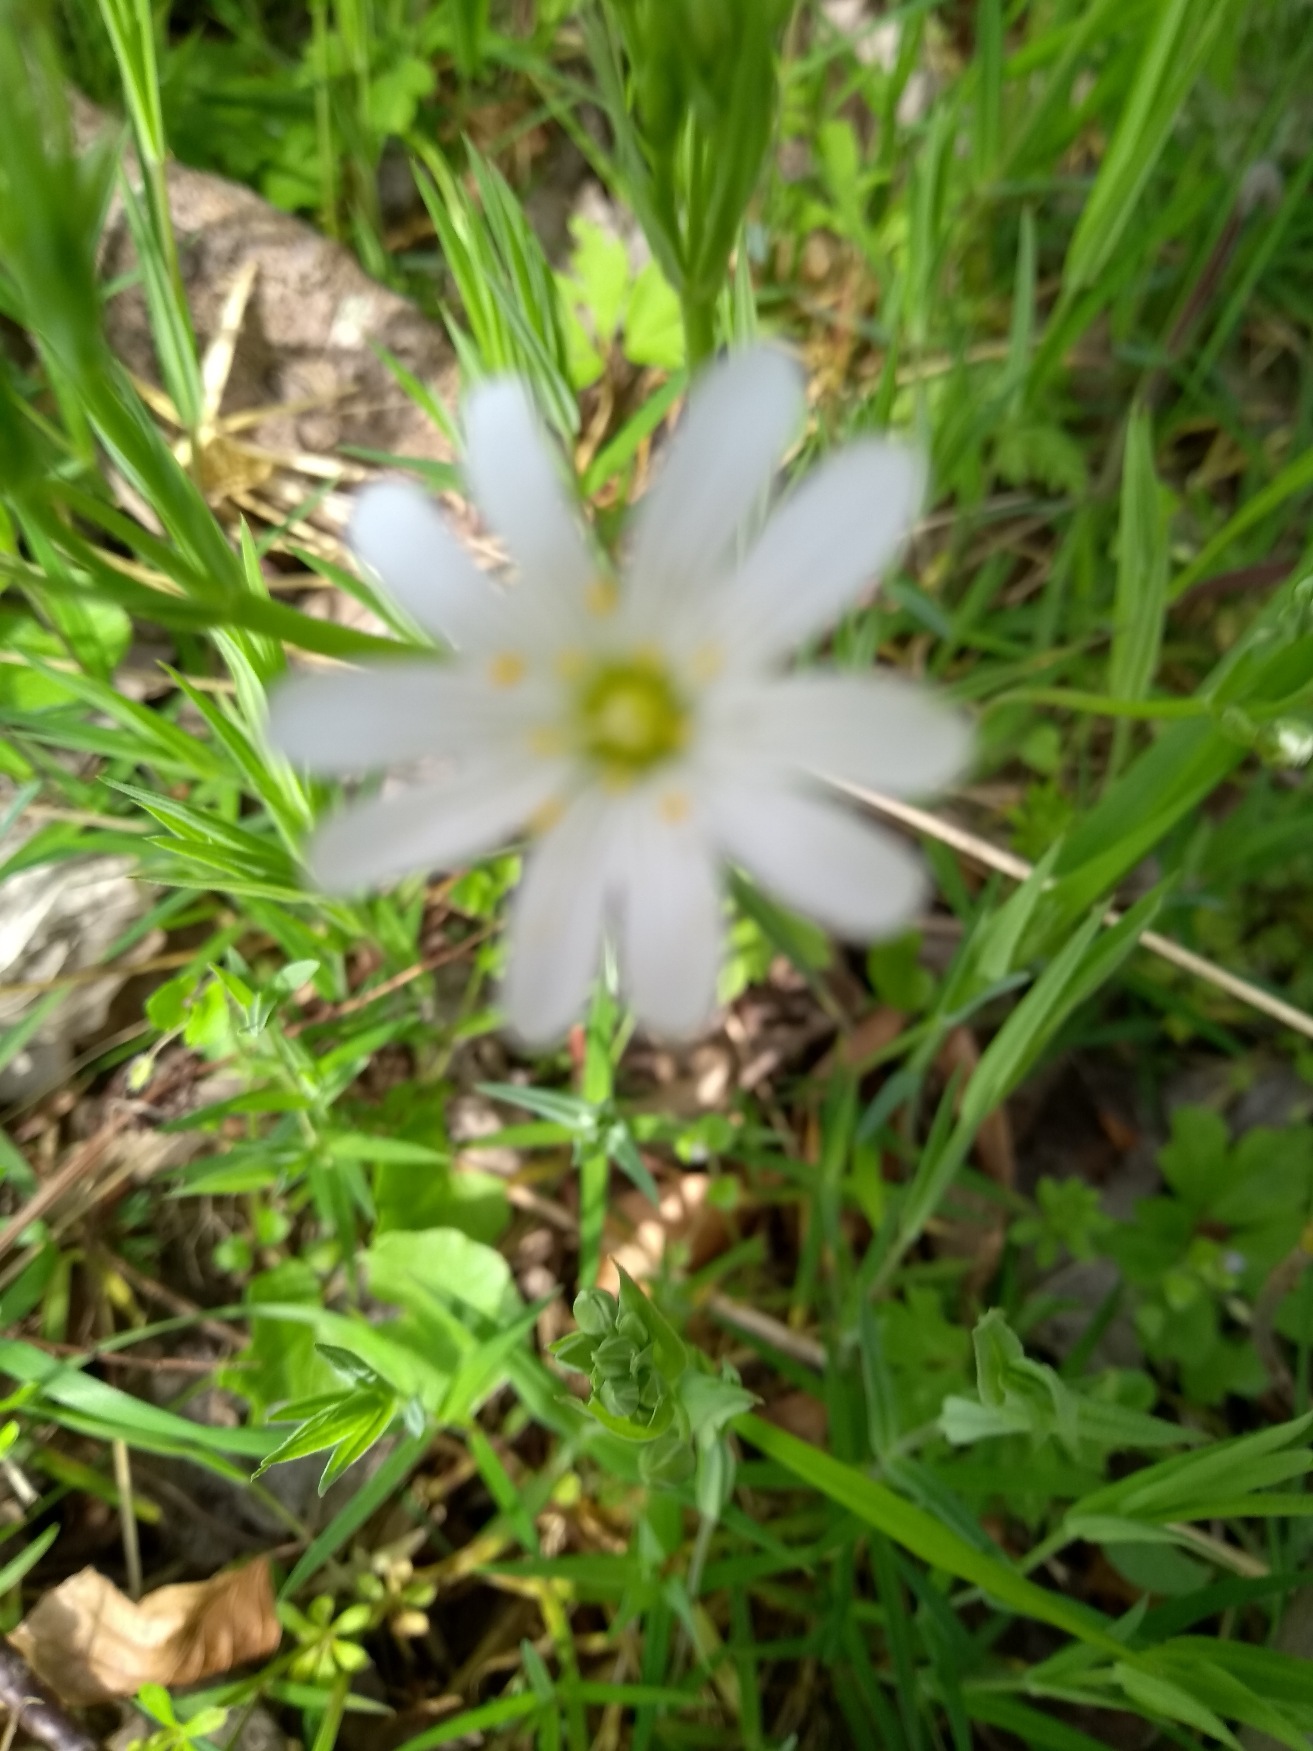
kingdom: Plantae
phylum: Tracheophyta
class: Magnoliopsida
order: Caryophyllales
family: Caryophyllaceae
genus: Rabelera
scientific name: Rabelera holostea
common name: Stor fladstjerne
